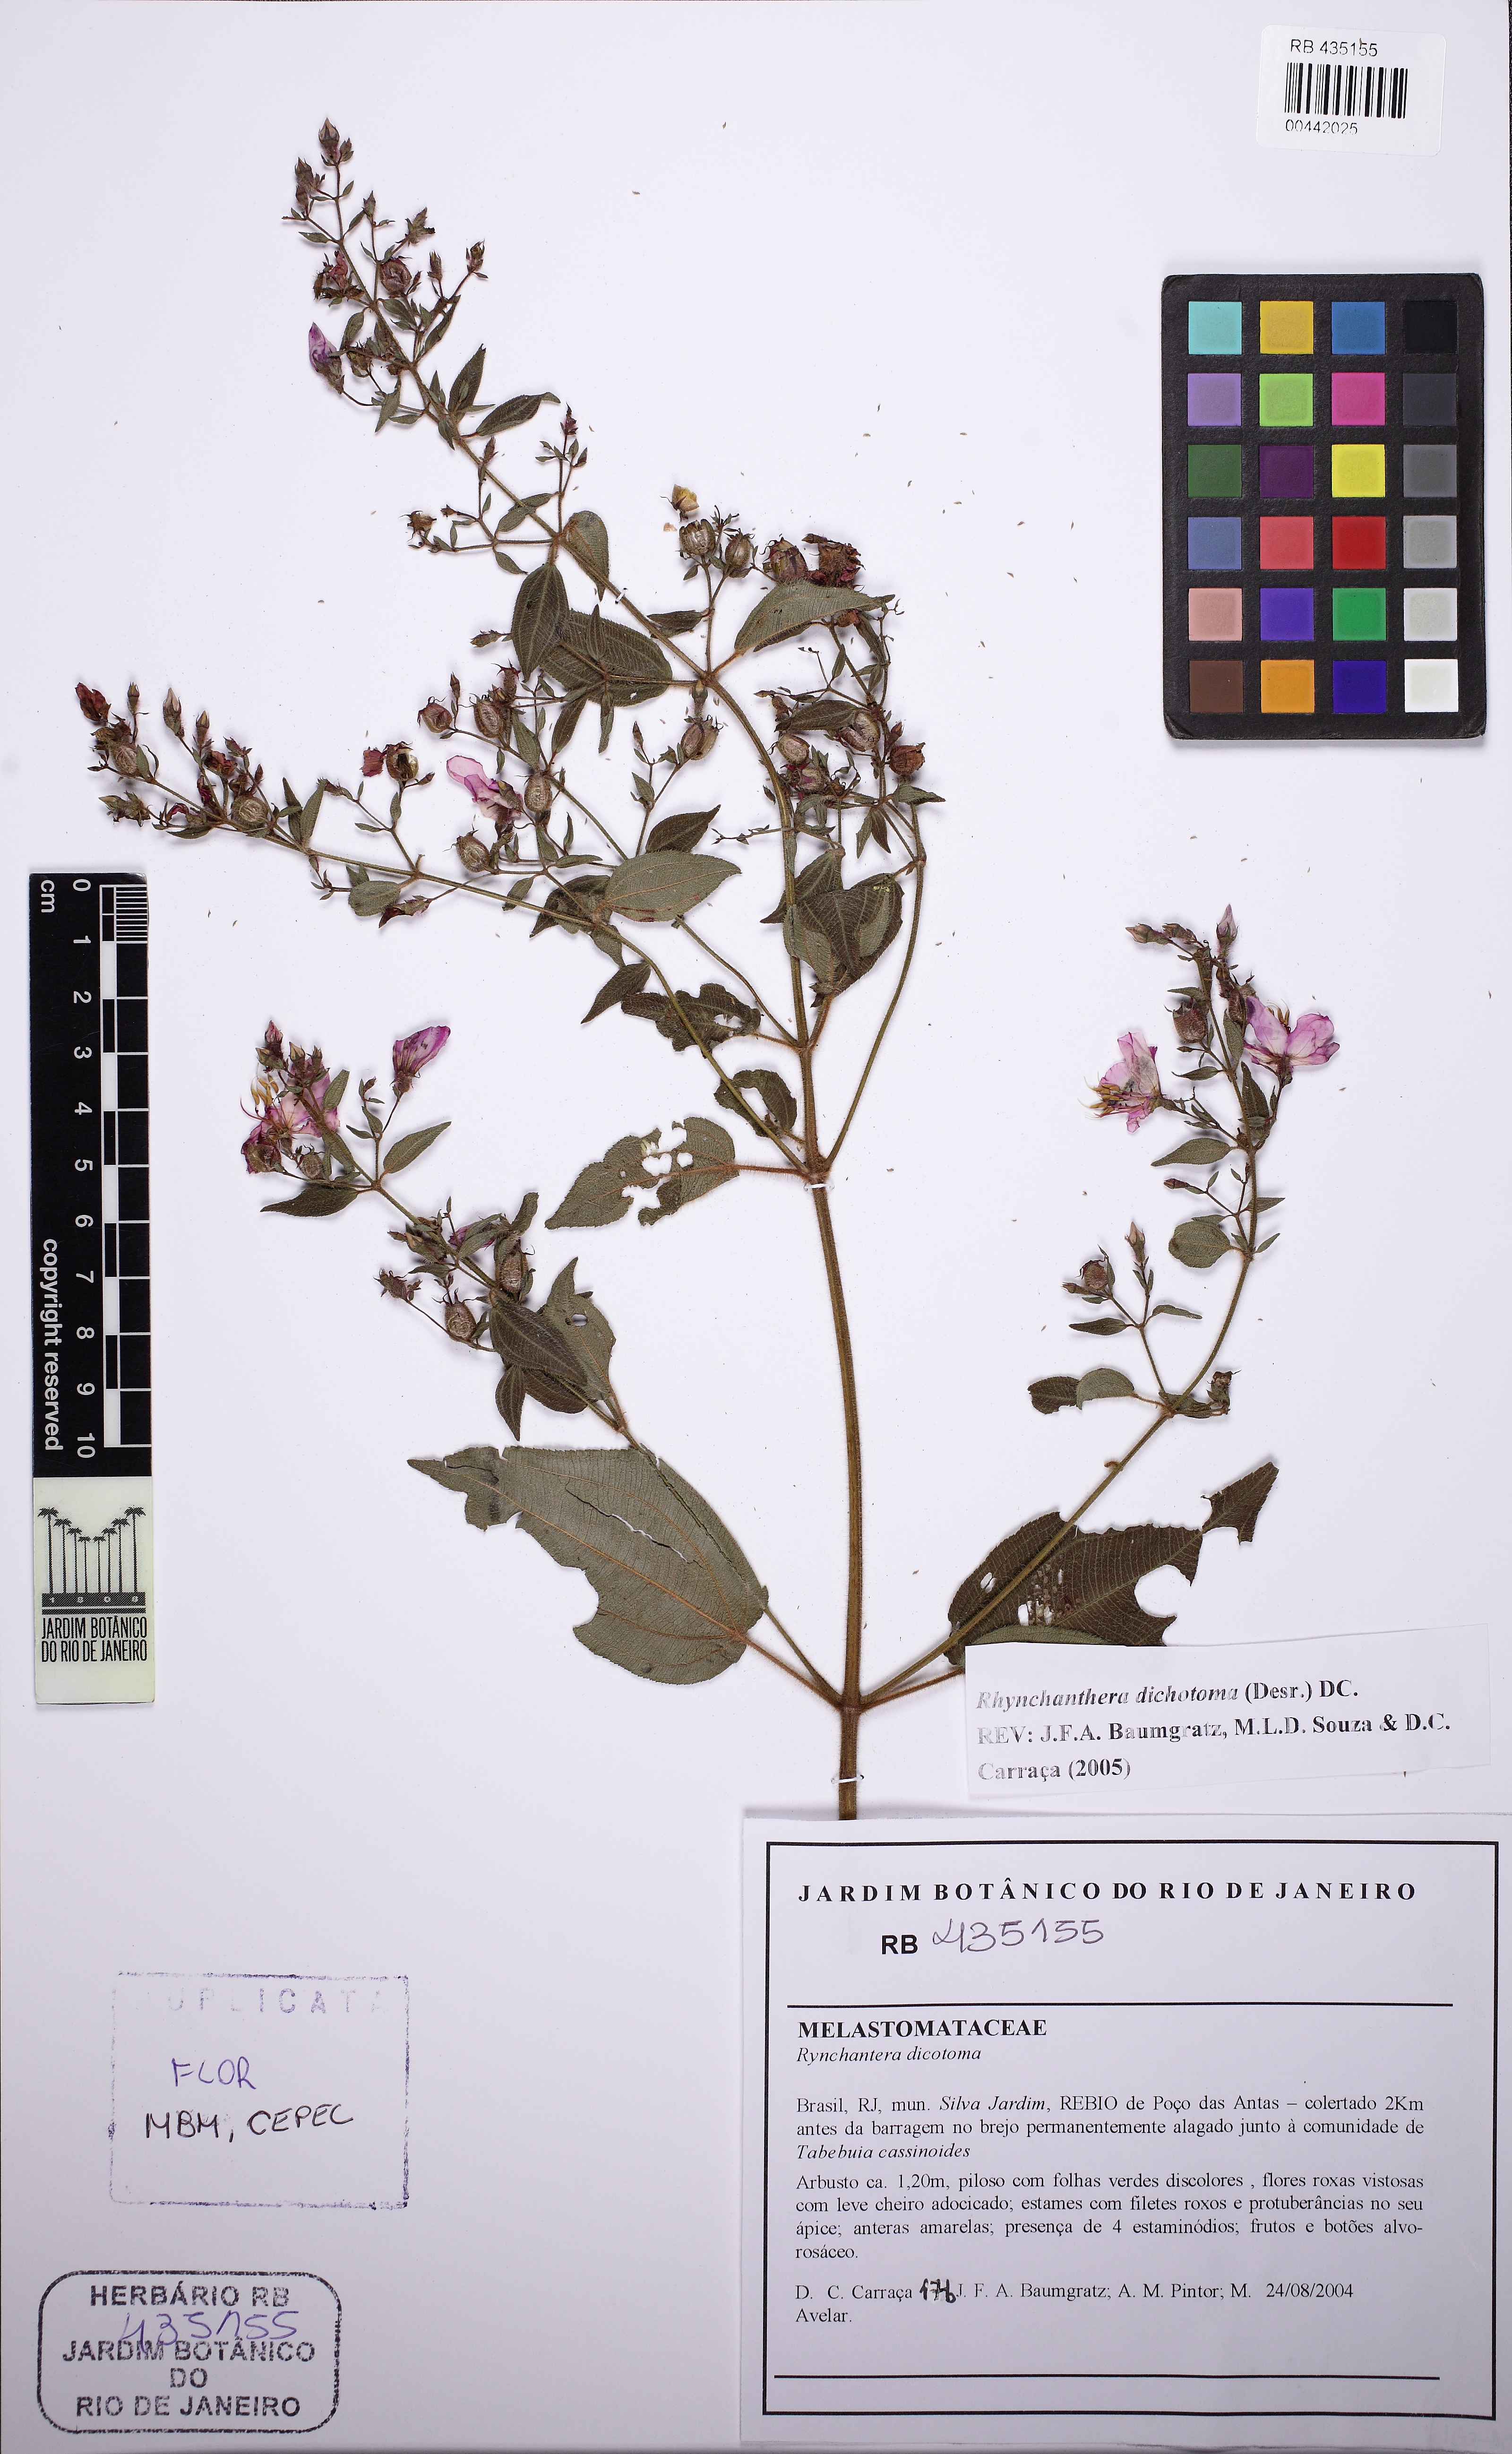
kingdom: Plantae
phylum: Tracheophyta
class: Magnoliopsida
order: Myrtales
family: Melastomataceae
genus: Rhynchanthera
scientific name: Rhynchanthera dichotoma
